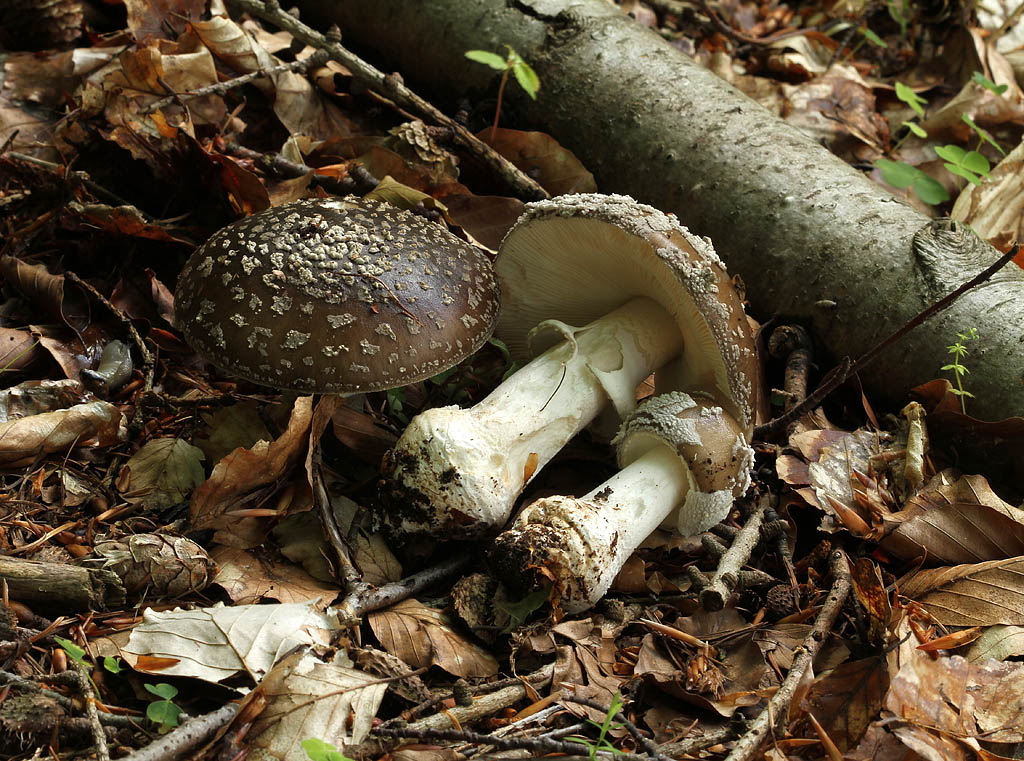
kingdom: Fungi
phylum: Basidiomycota
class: Agaricomycetes
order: Agaricales
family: Amanitaceae
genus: Amanita
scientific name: Amanita
